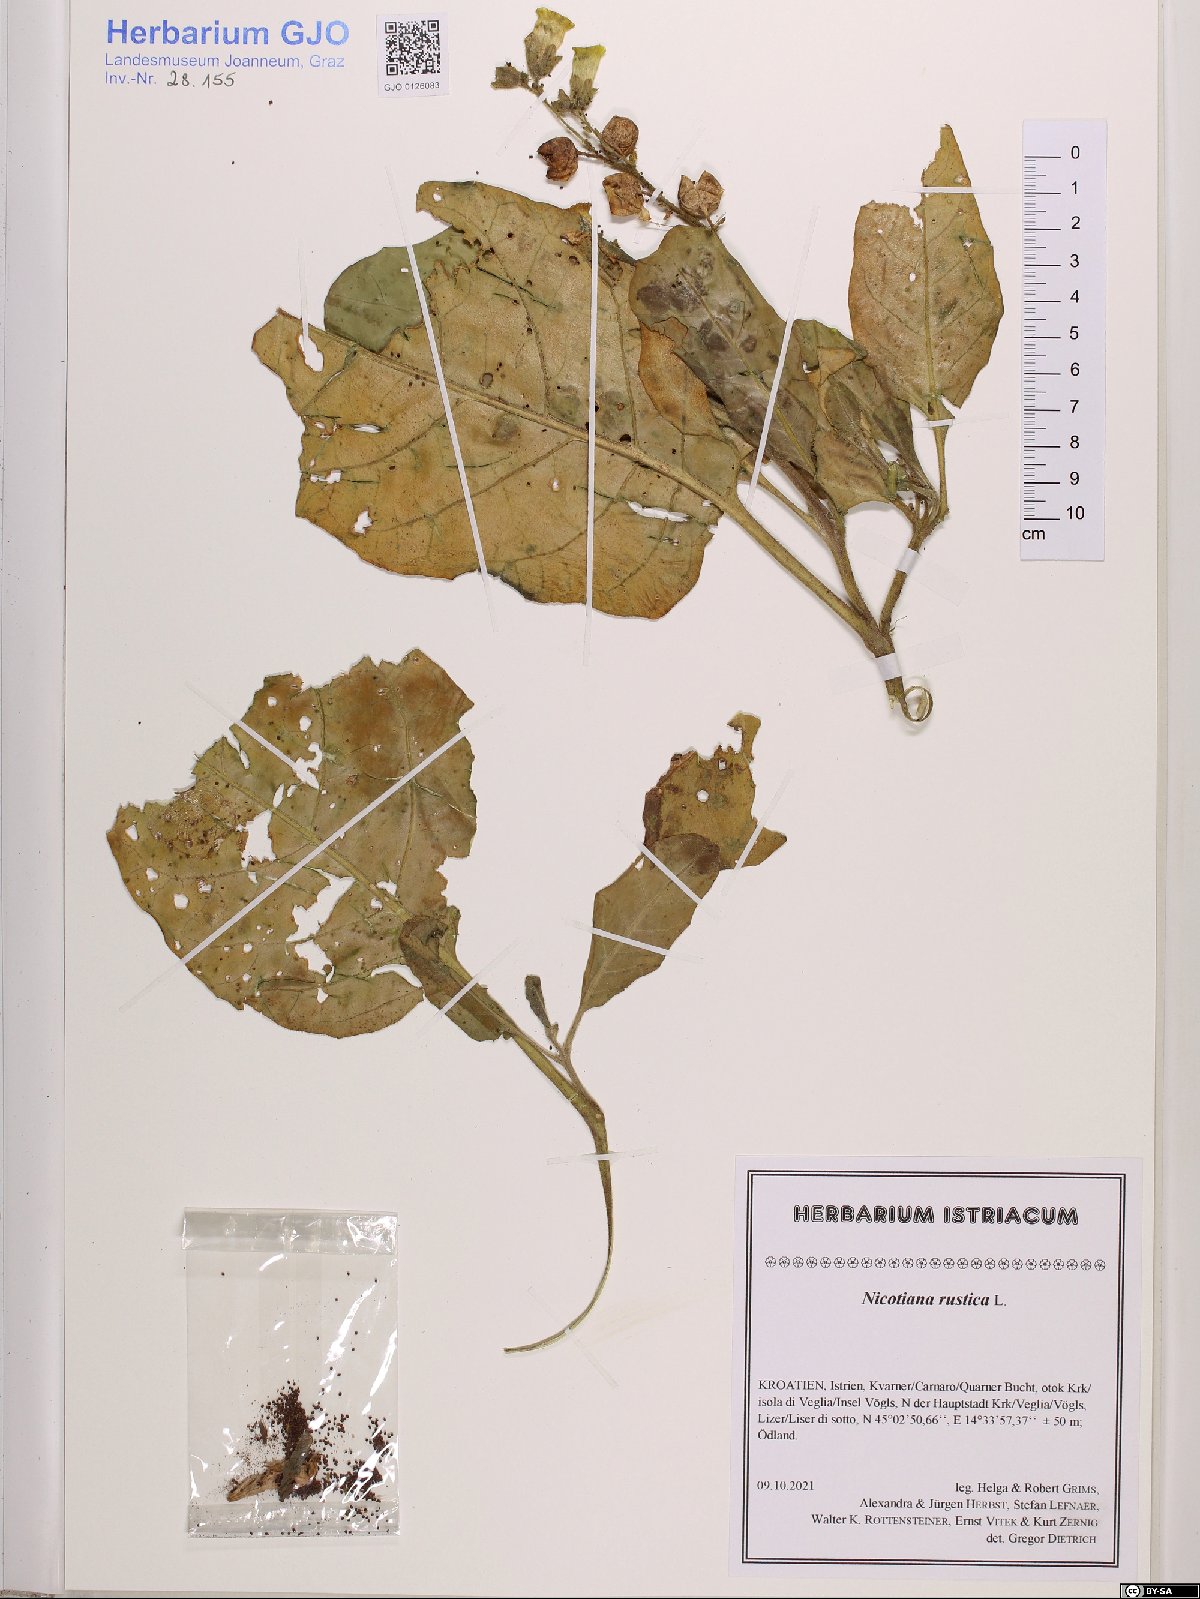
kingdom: Plantae
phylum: Tracheophyta
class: Magnoliopsida
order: Solanales
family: Solanaceae
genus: Nicotiana
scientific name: Nicotiana rustica
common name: Wild tobacco
